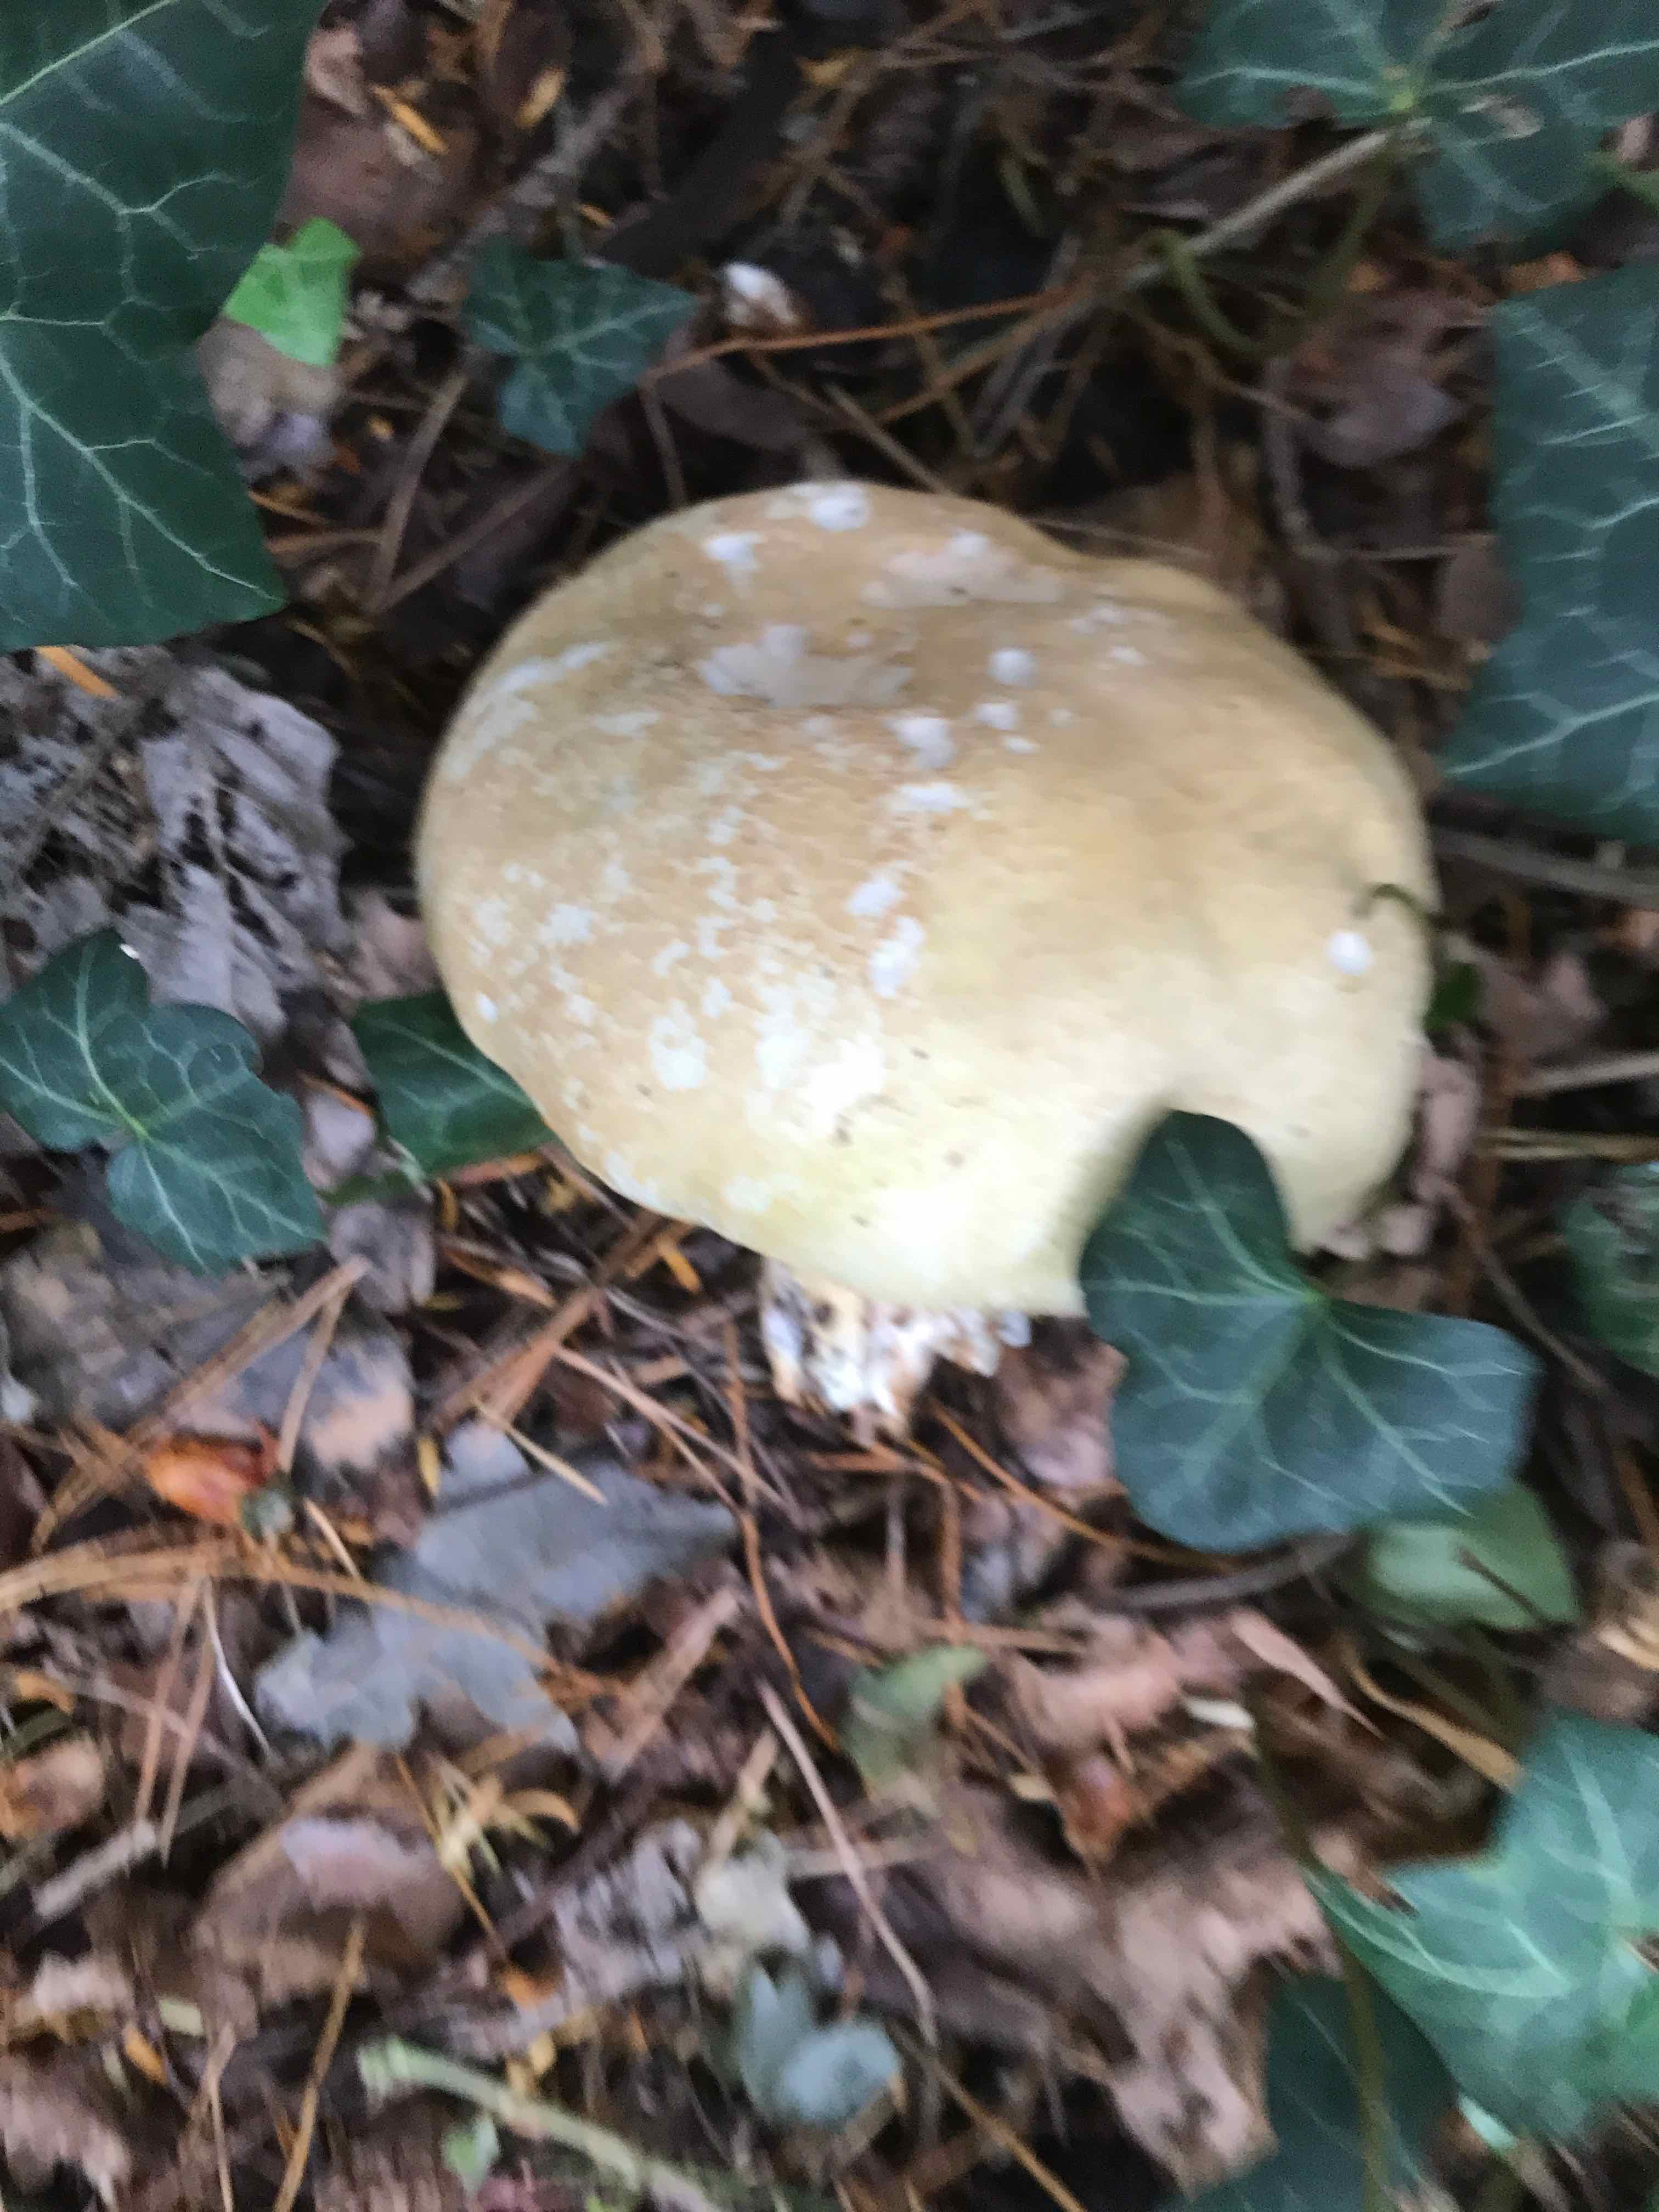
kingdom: Fungi
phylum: Basidiomycota
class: Agaricomycetes
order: Agaricales
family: Agaricaceae
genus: Agaricus
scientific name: Agaricus augustus
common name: prægtig champignon
